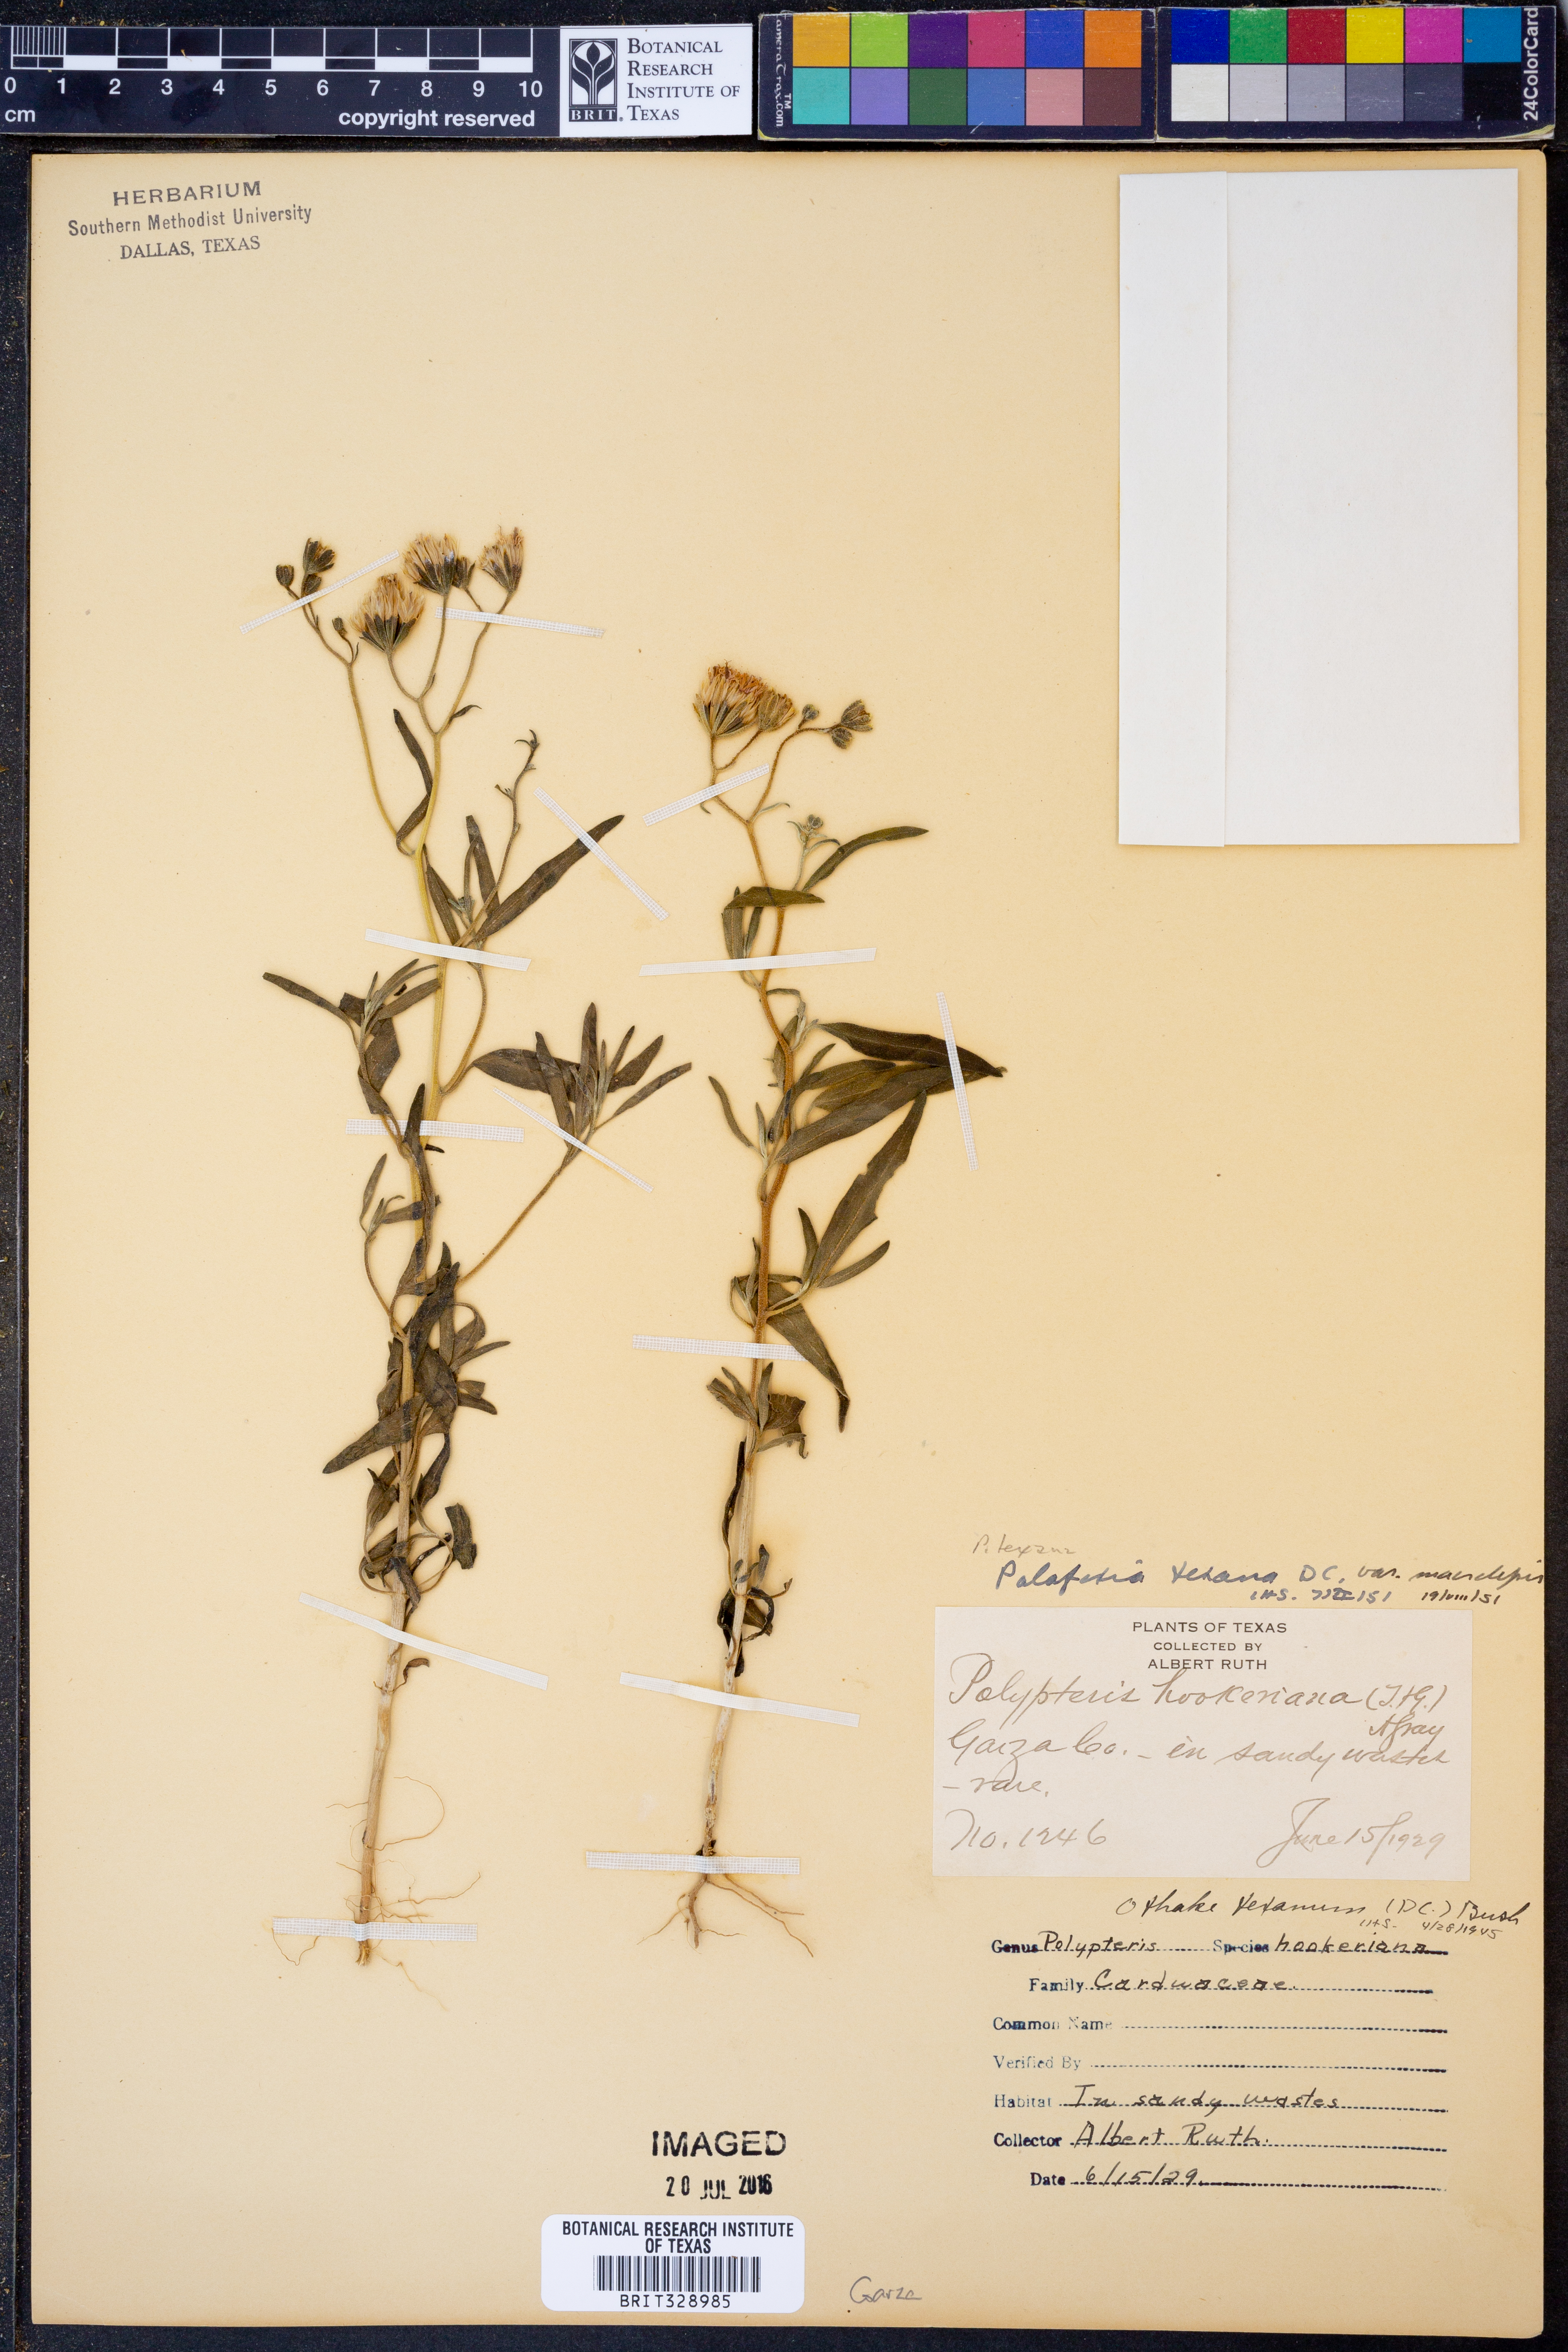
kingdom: Plantae
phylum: Tracheophyta
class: Magnoliopsida
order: Asterales
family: Asteraceae
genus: Palafoxia
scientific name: Palafoxia rosea
